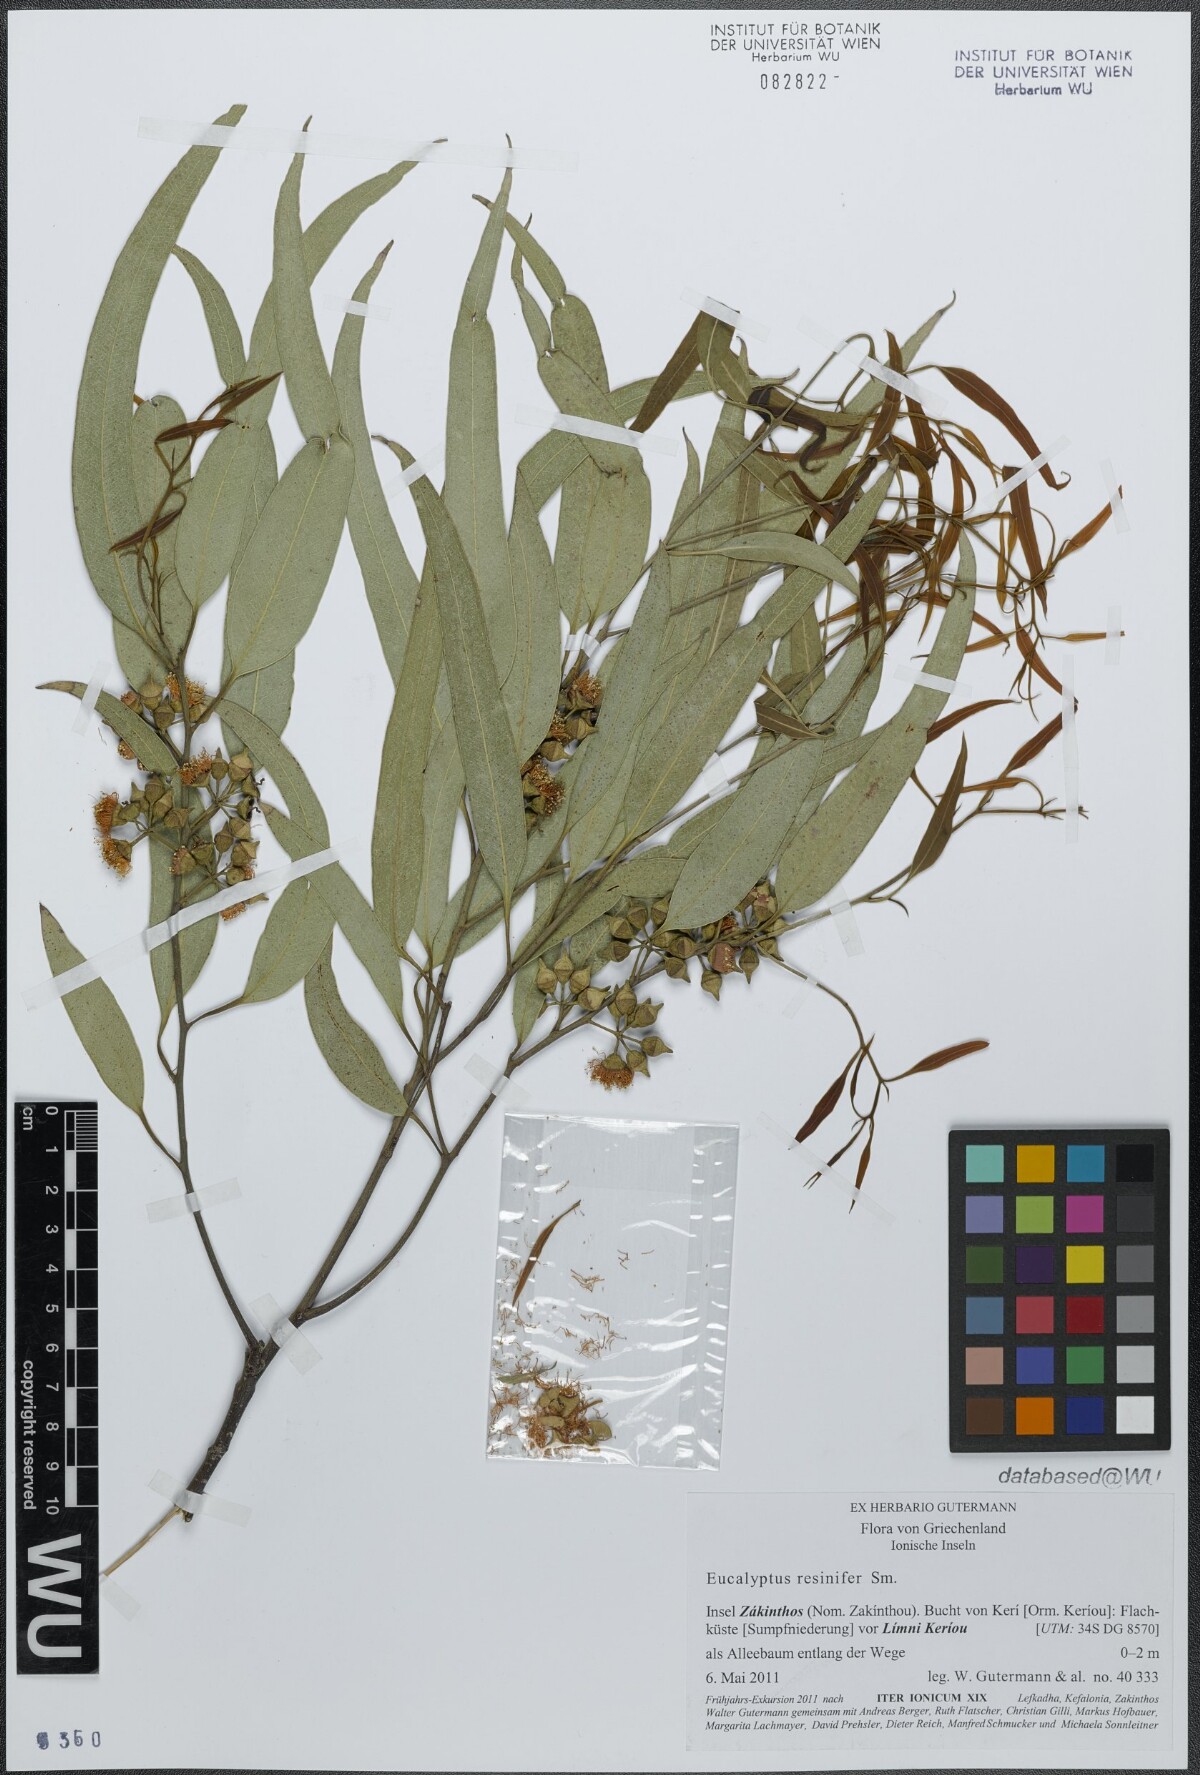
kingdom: Plantae
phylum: Tracheophyta
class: Magnoliopsida
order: Myrtales
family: Myrtaceae
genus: Eucalyptus
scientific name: Eucalyptus resinifera
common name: Red-mahogany
